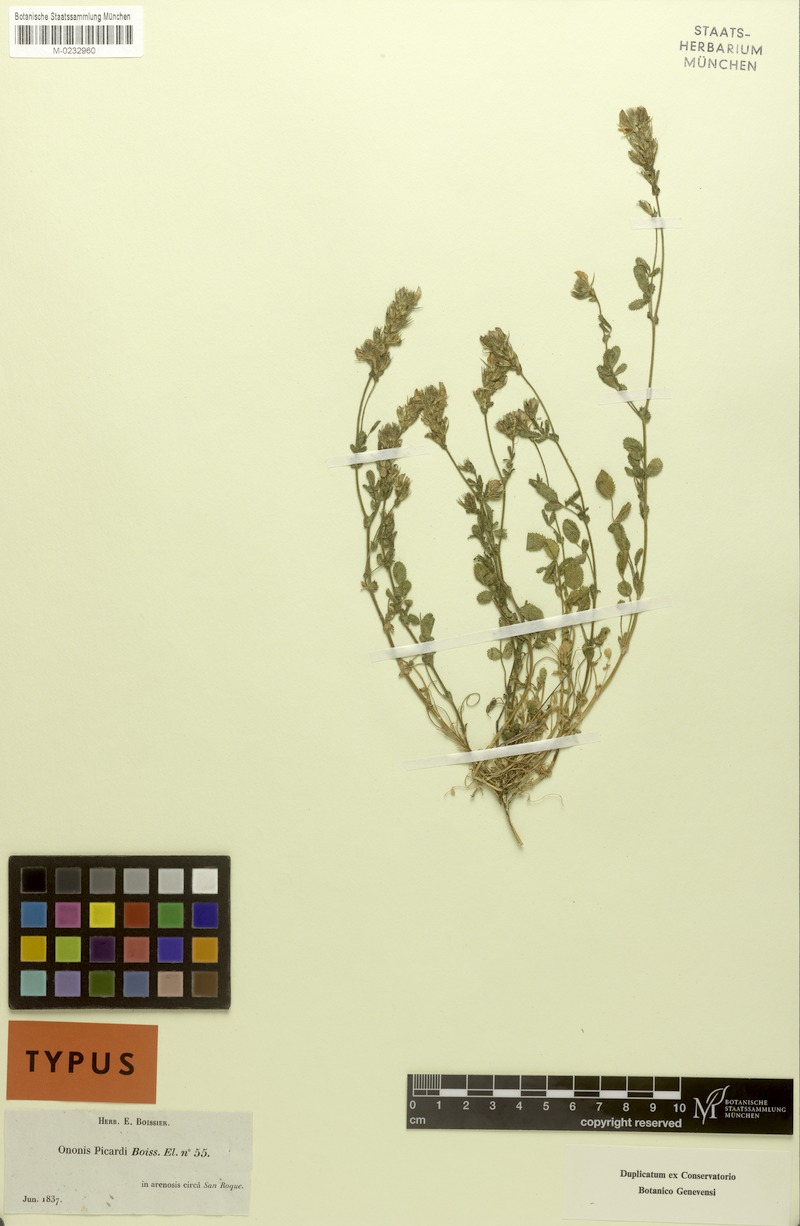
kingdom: Plantae
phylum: Tracheophyta
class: Magnoliopsida
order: Fabales
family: Fabaceae
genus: Ononis
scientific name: Ononis baetica
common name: Andalucian restharrow
